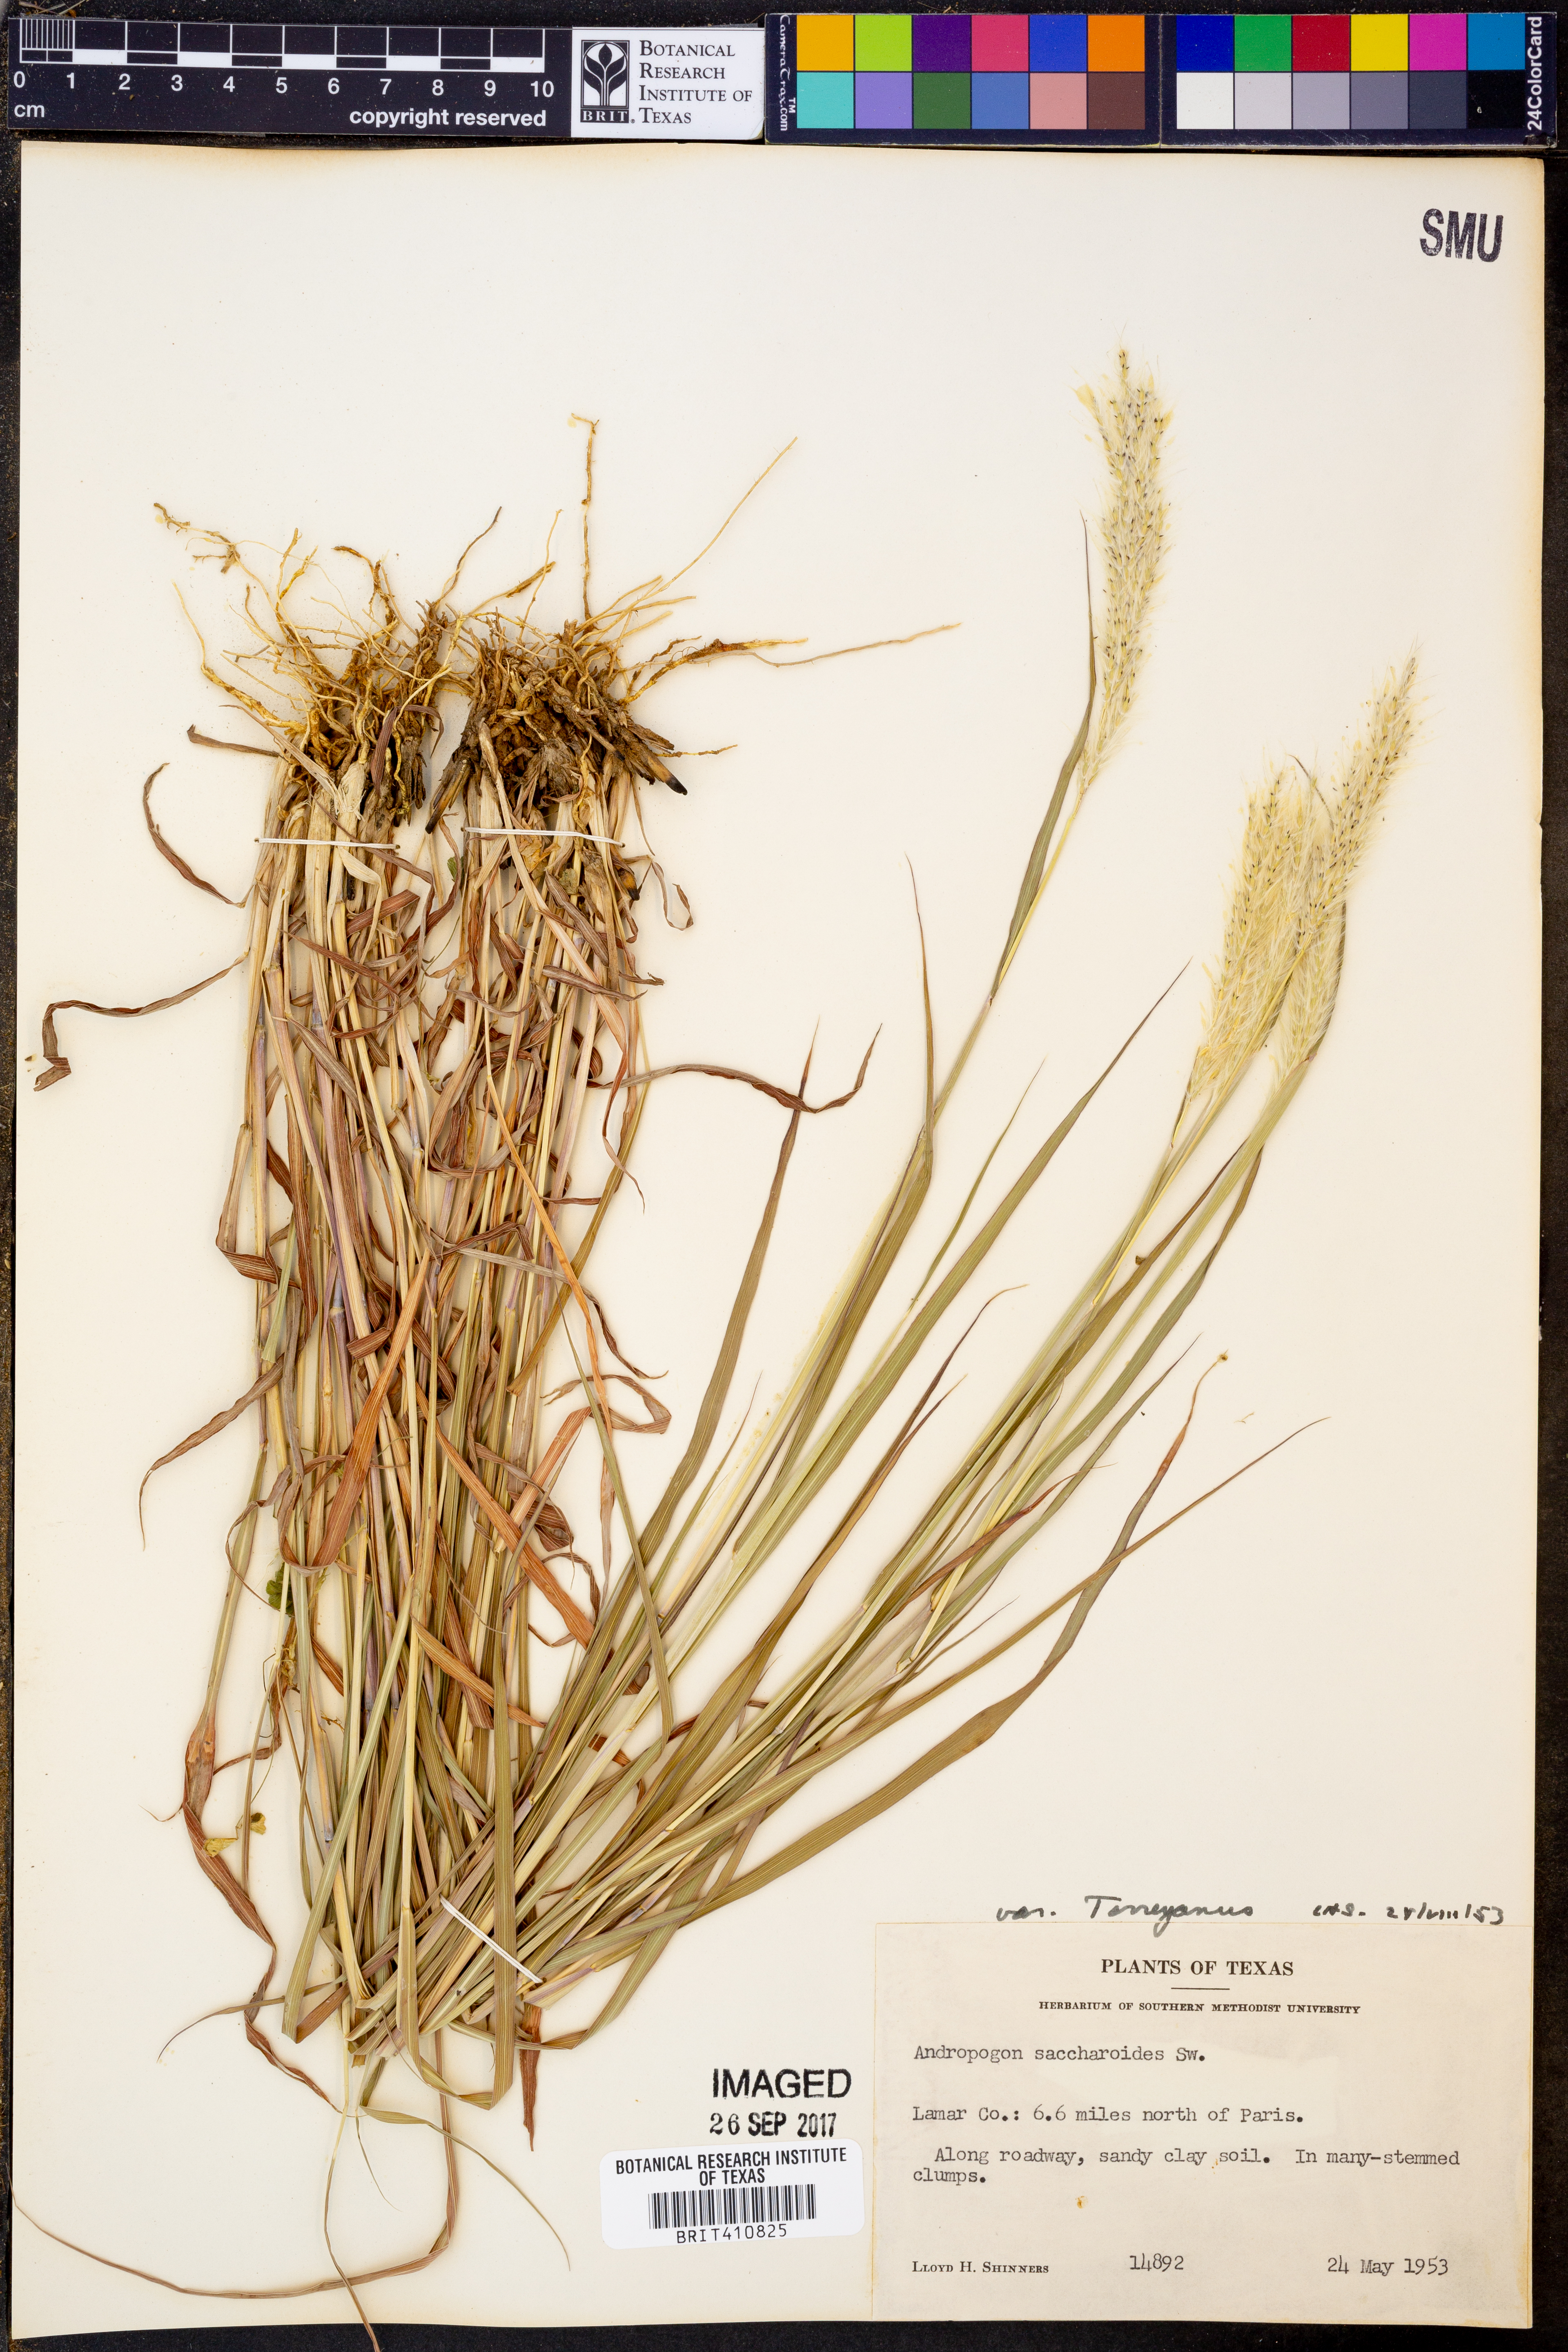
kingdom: Plantae
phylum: Tracheophyta
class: Liliopsida
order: Poales
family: Poaceae
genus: Bothriochloa
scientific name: Bothriochloa torreyana
